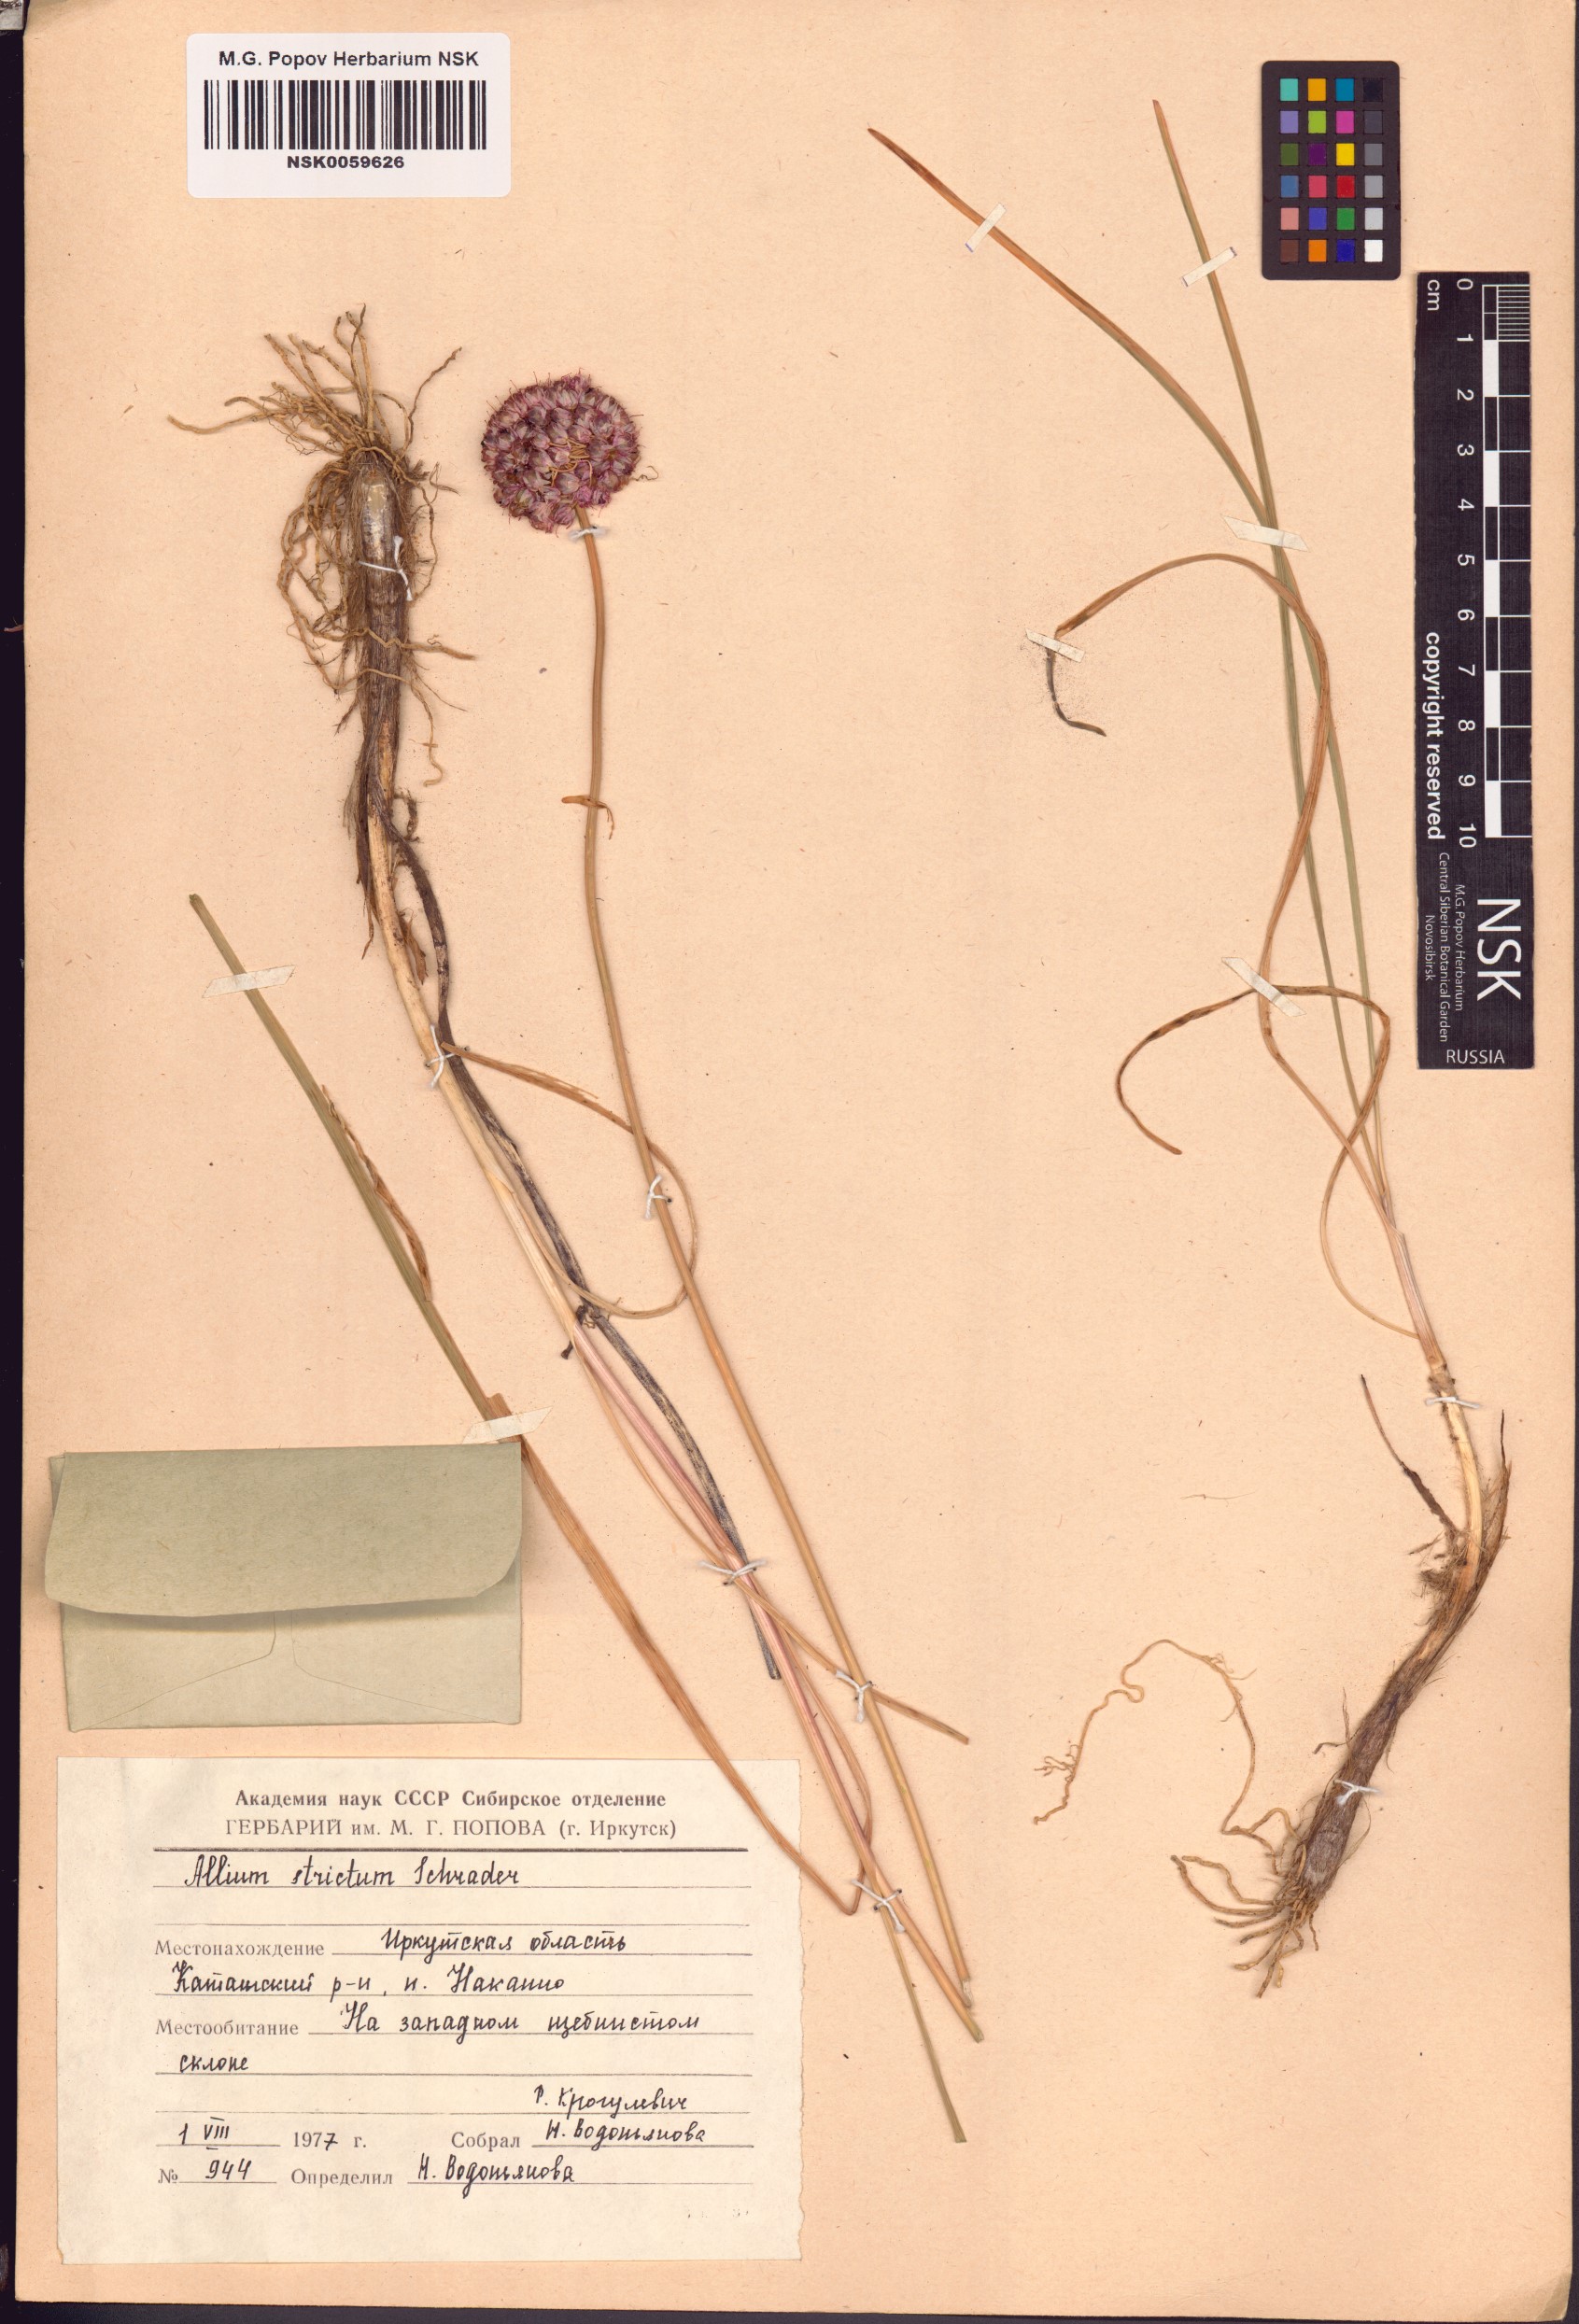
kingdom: Plantae
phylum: Tracheophyta
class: Liliopsida
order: Asparagales
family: Amaryllidaceae
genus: Allium
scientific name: Allium strictum
